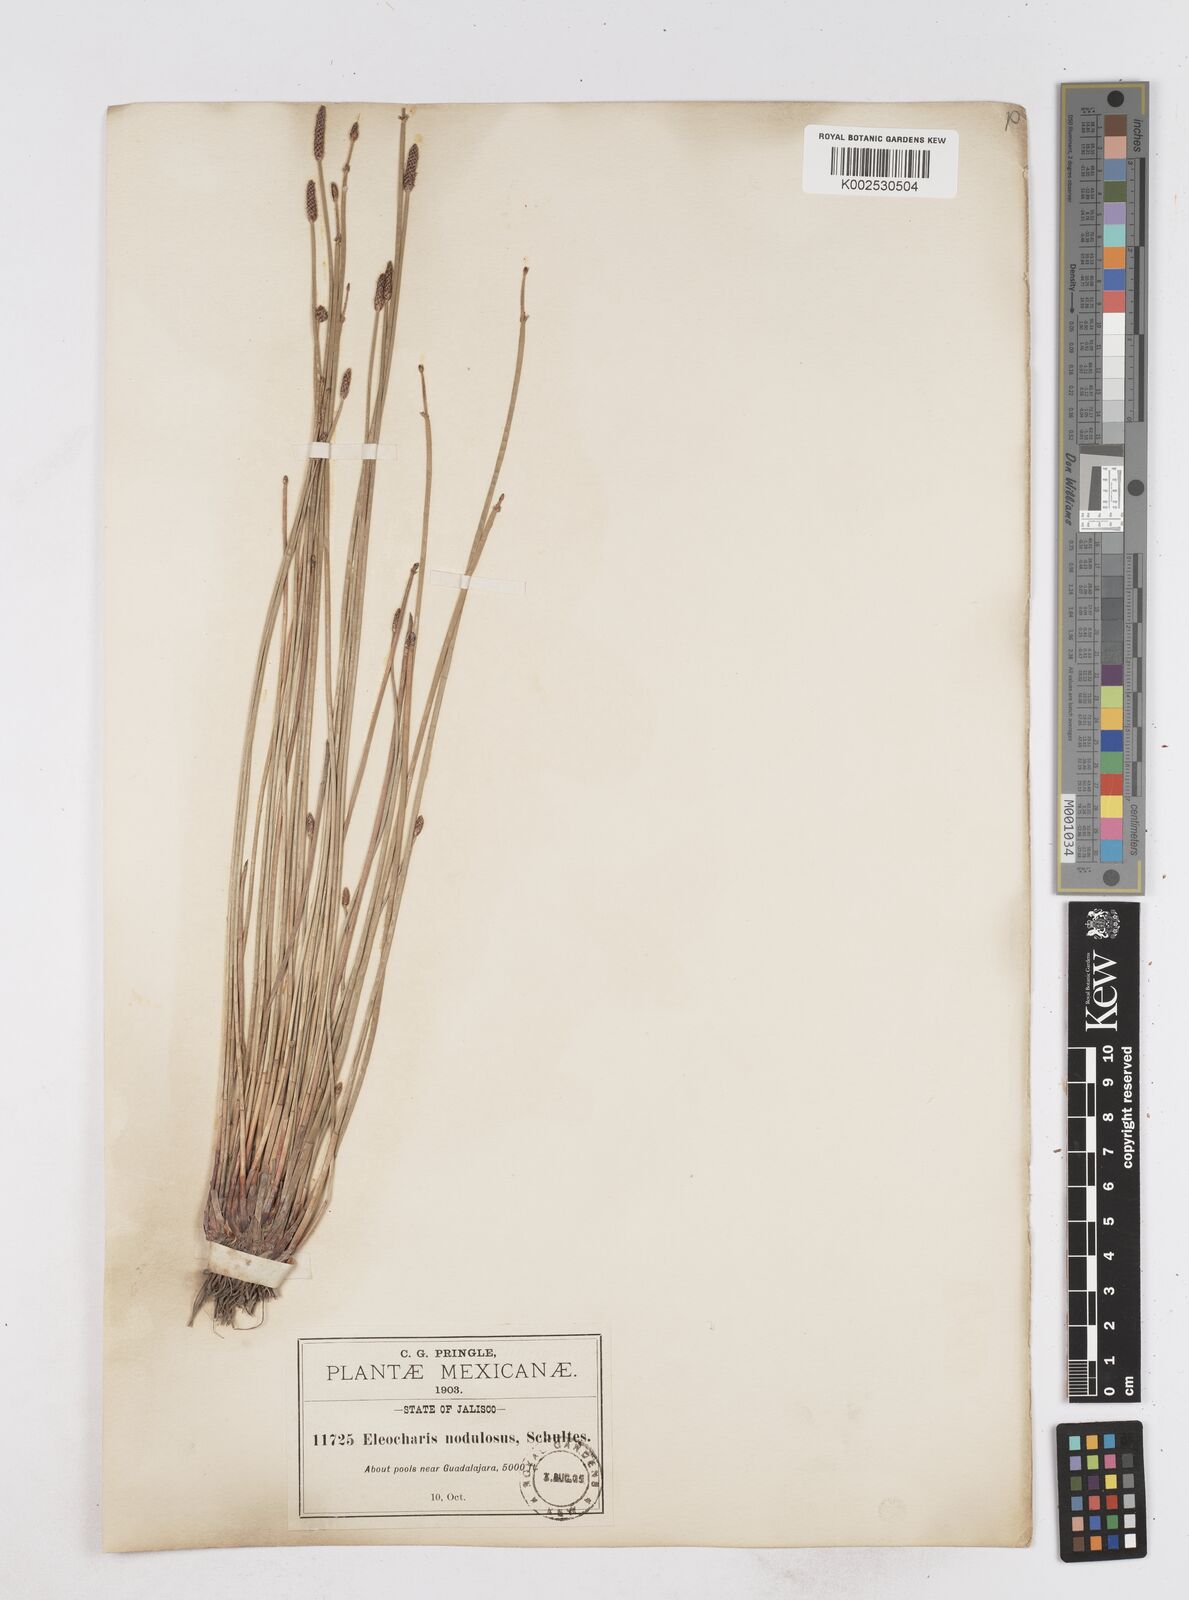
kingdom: Plantae
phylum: Tracheophyta
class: Liliopsida
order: Poales
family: Cyperaceae
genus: Eleocharis
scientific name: Eleocharis montana
